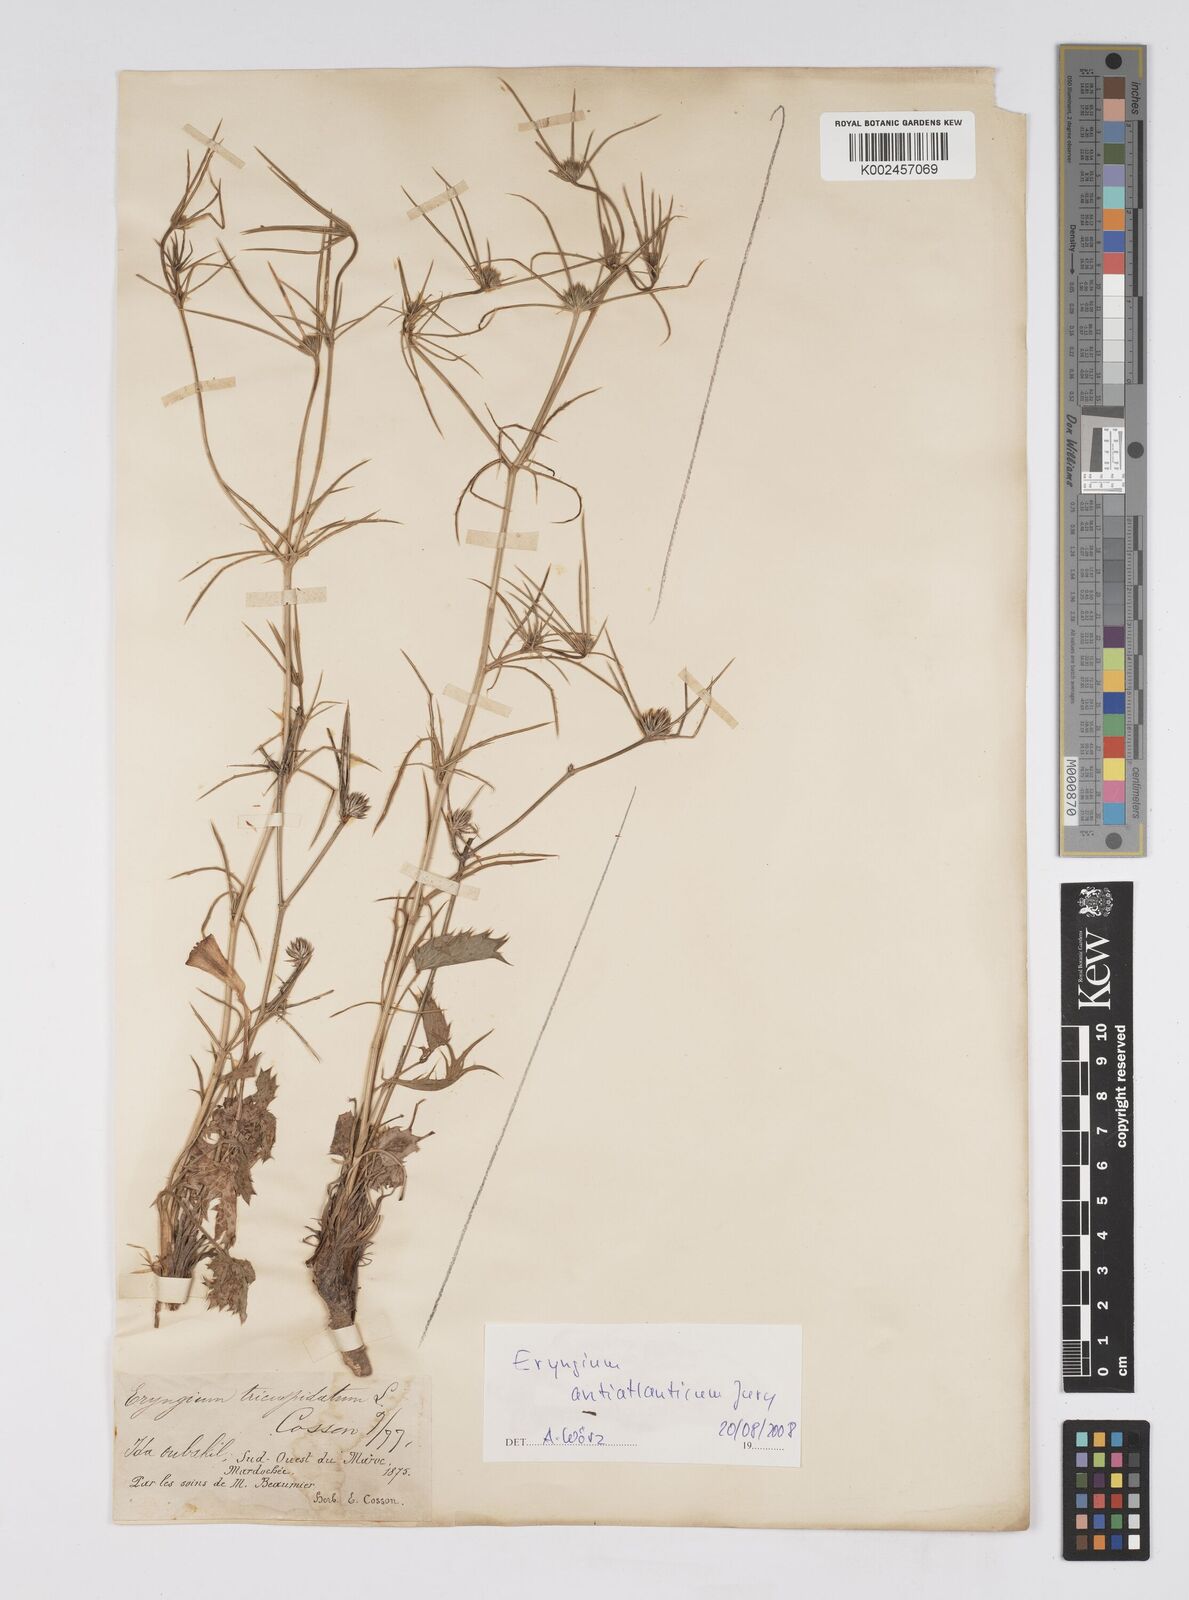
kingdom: Plantae
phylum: Tracheophyta
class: Magnoliopsida
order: Apiales
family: Apiaceae
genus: Eryngium
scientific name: Eryngium tricuspidatum
